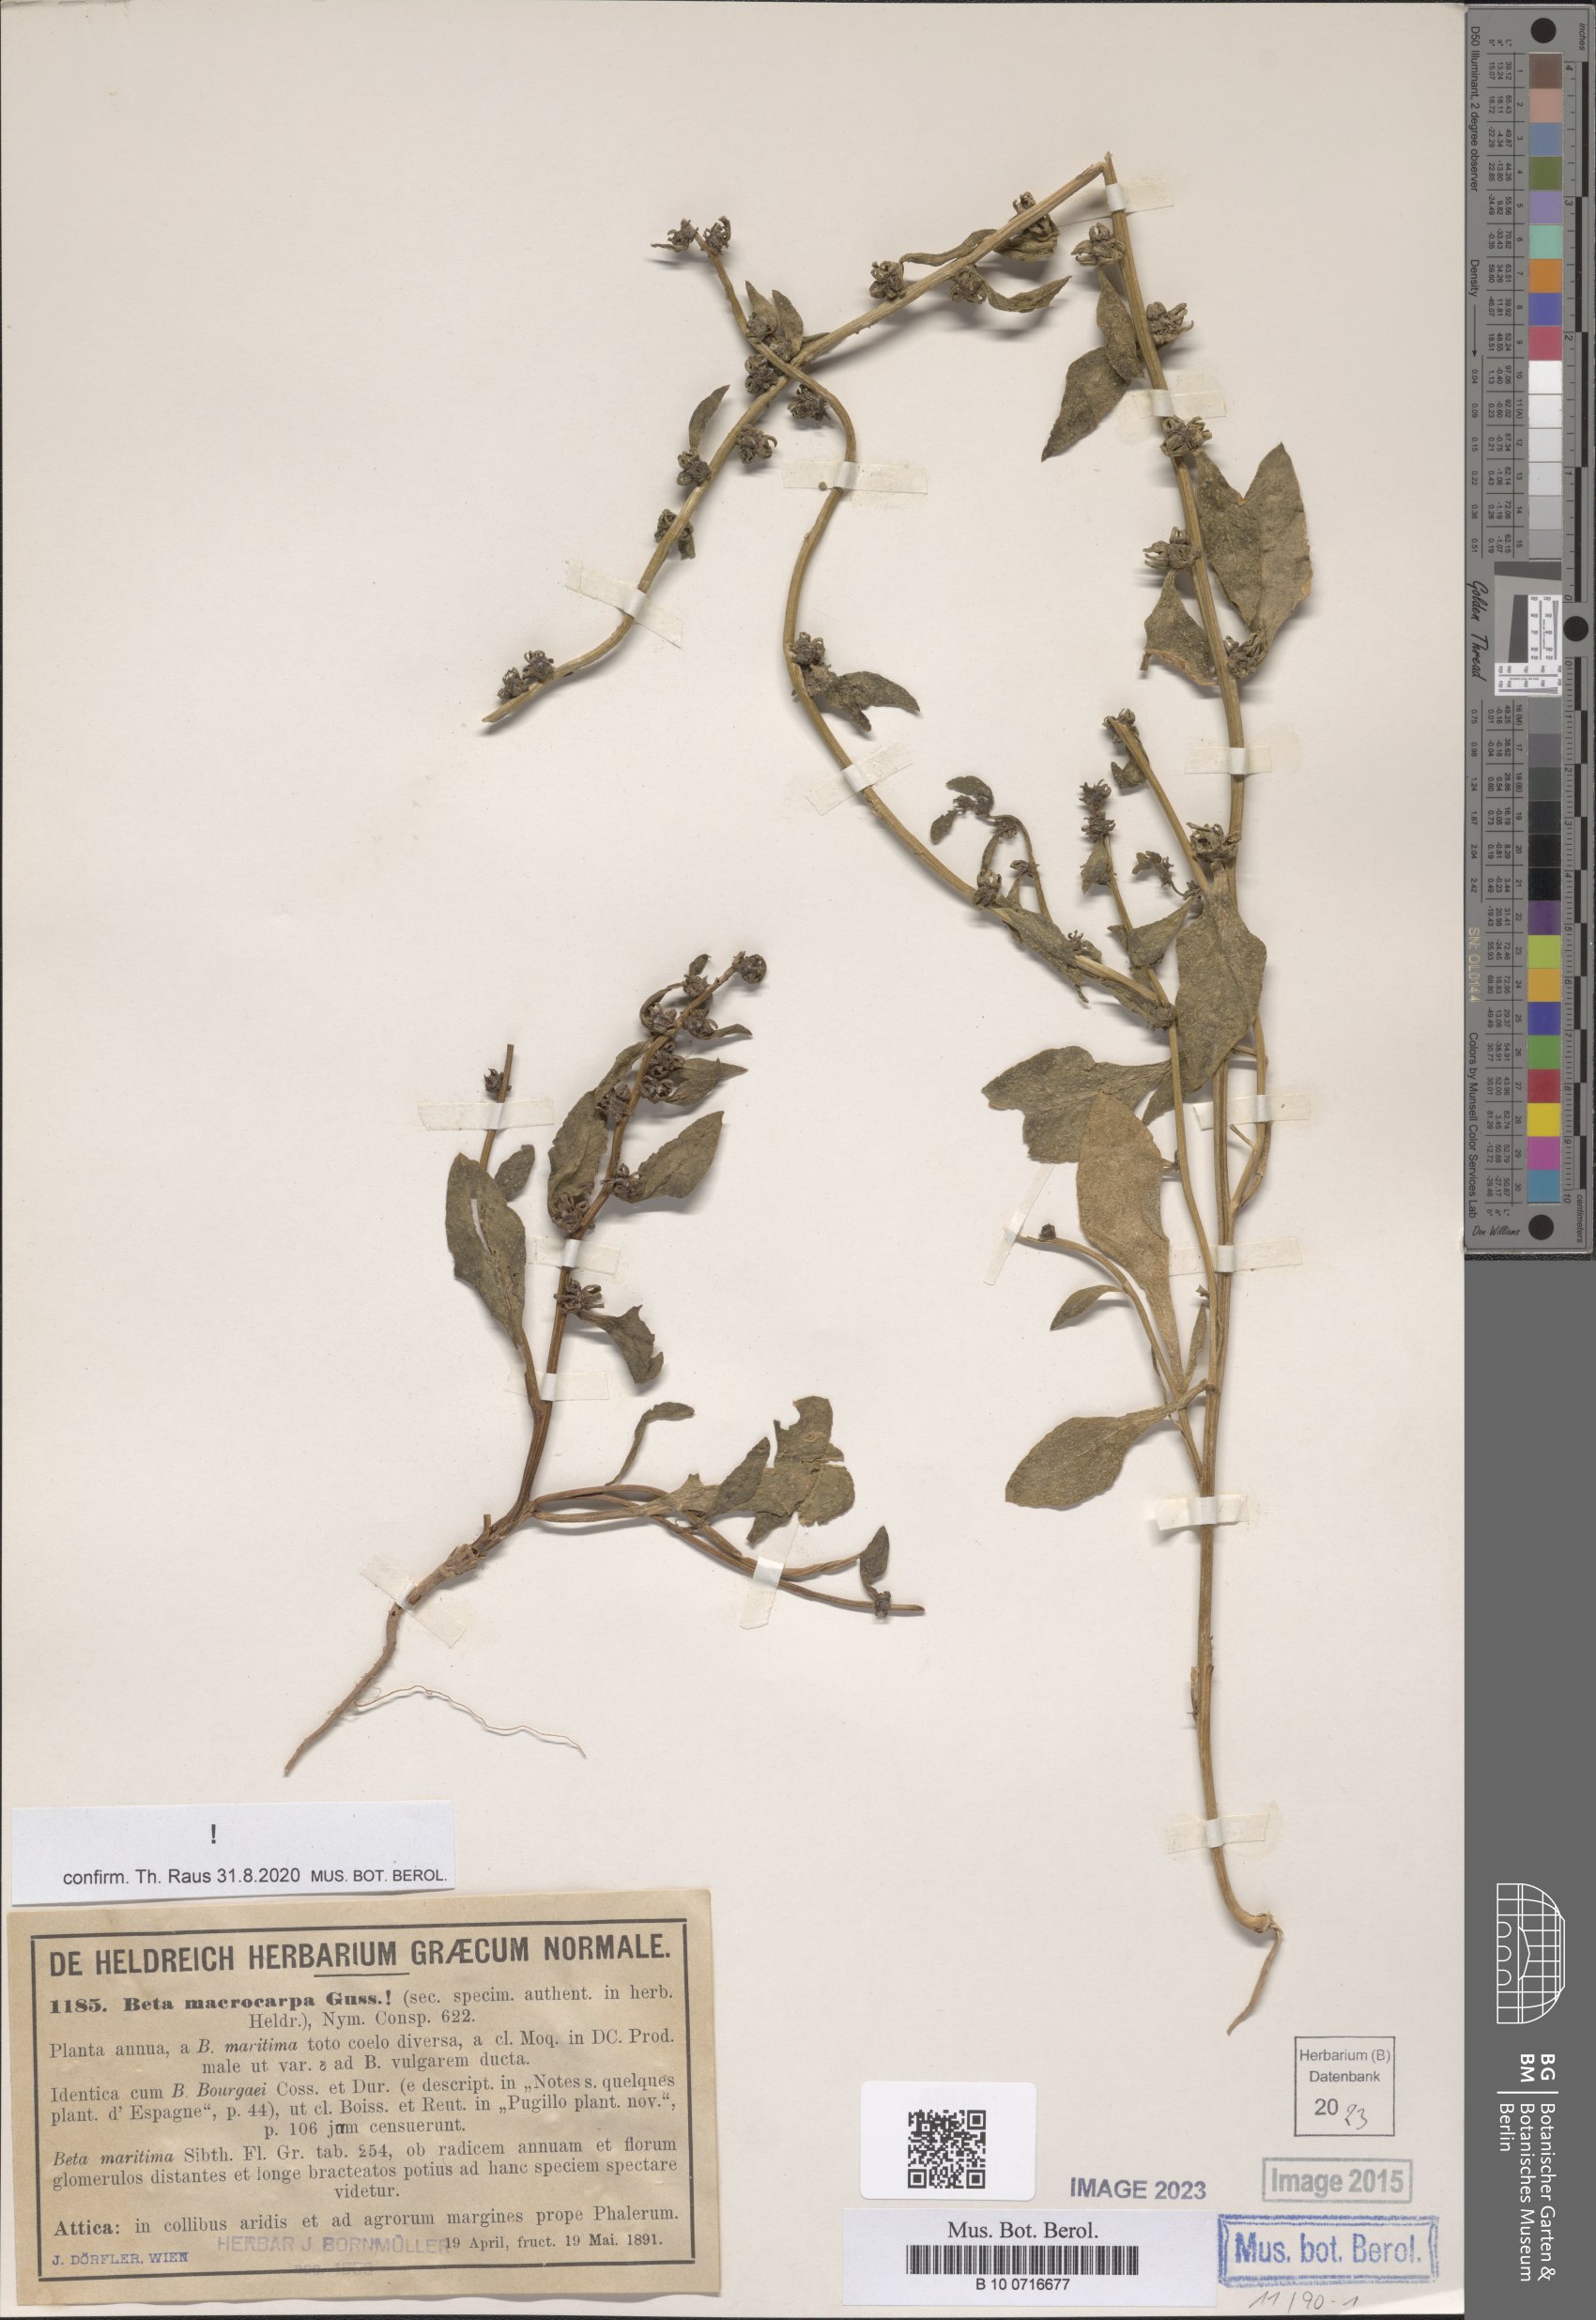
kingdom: Plantae
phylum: Tracheophyta
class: Magnoliopsida
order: Caryophyllales
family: Amaranthaceae
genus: Beta
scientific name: Beta macrocarpa
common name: Beet
